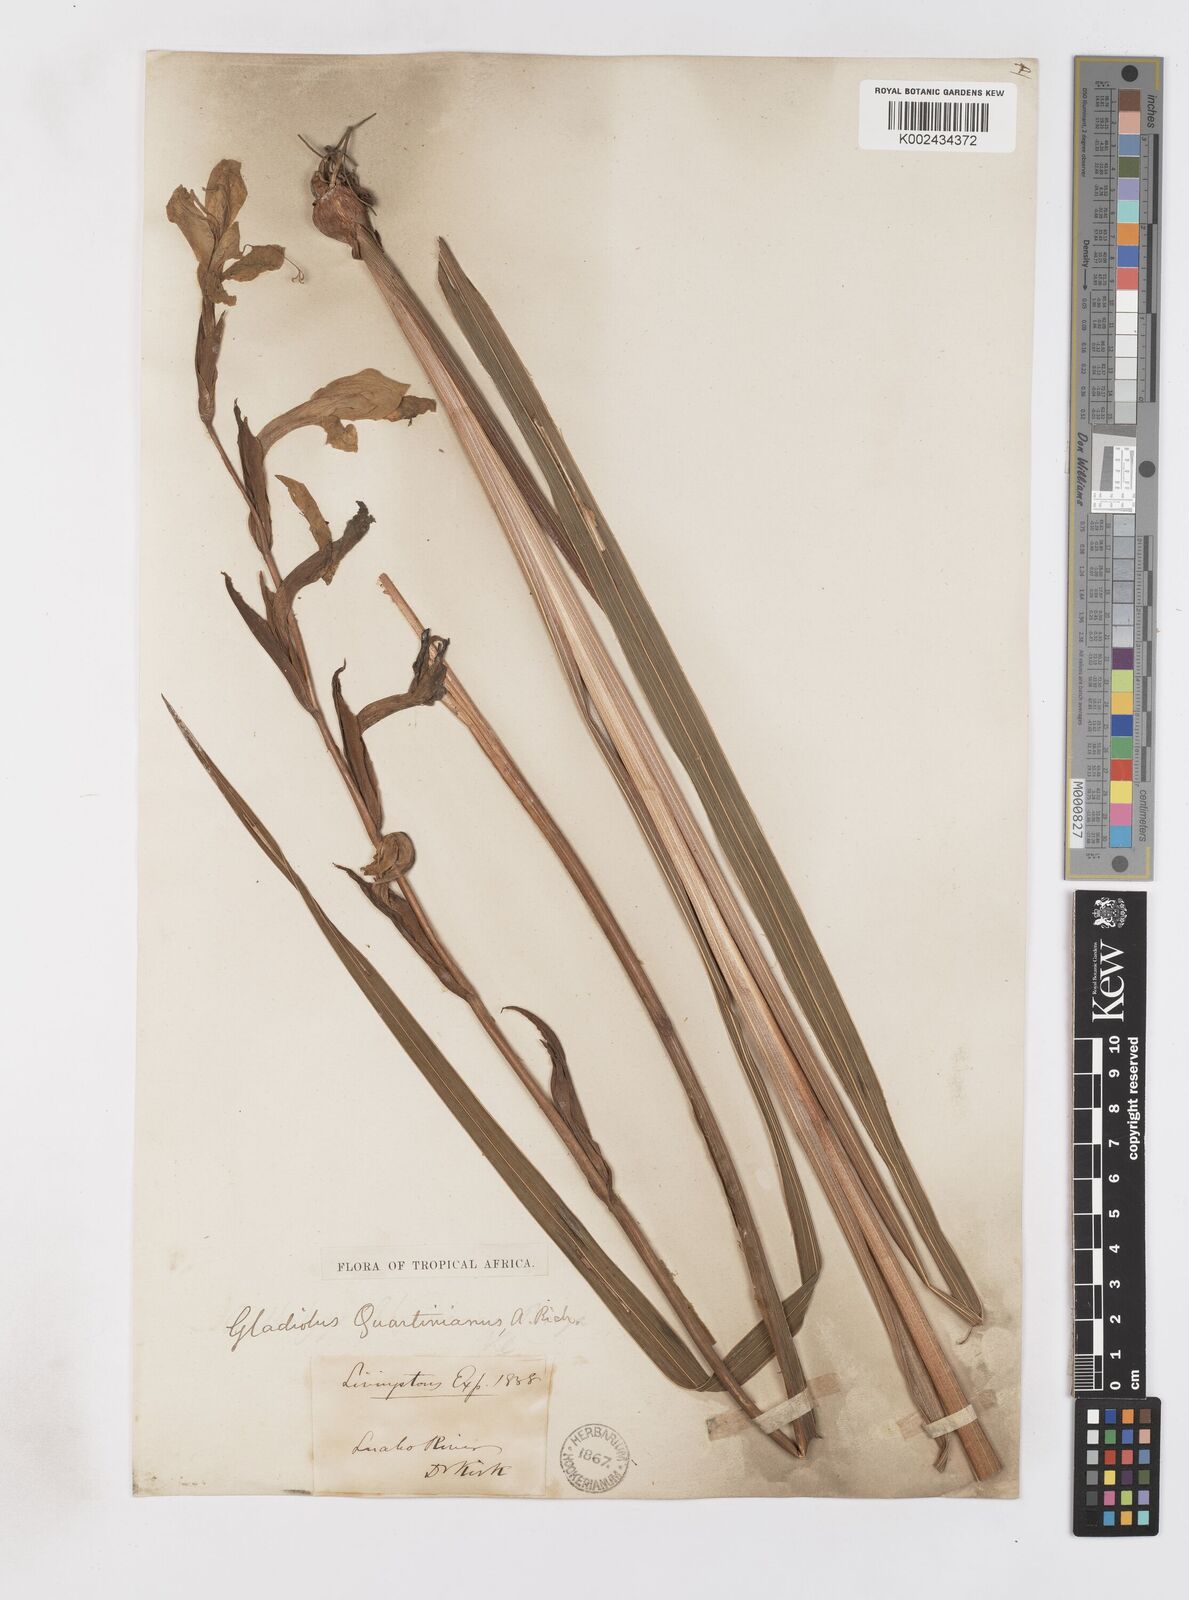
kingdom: Plantae
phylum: Tracheophyta
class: Liliopsida
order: Asparagales
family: Iridaceae
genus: Gladiolus
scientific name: Gladiolus dalenii
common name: Cornflag
